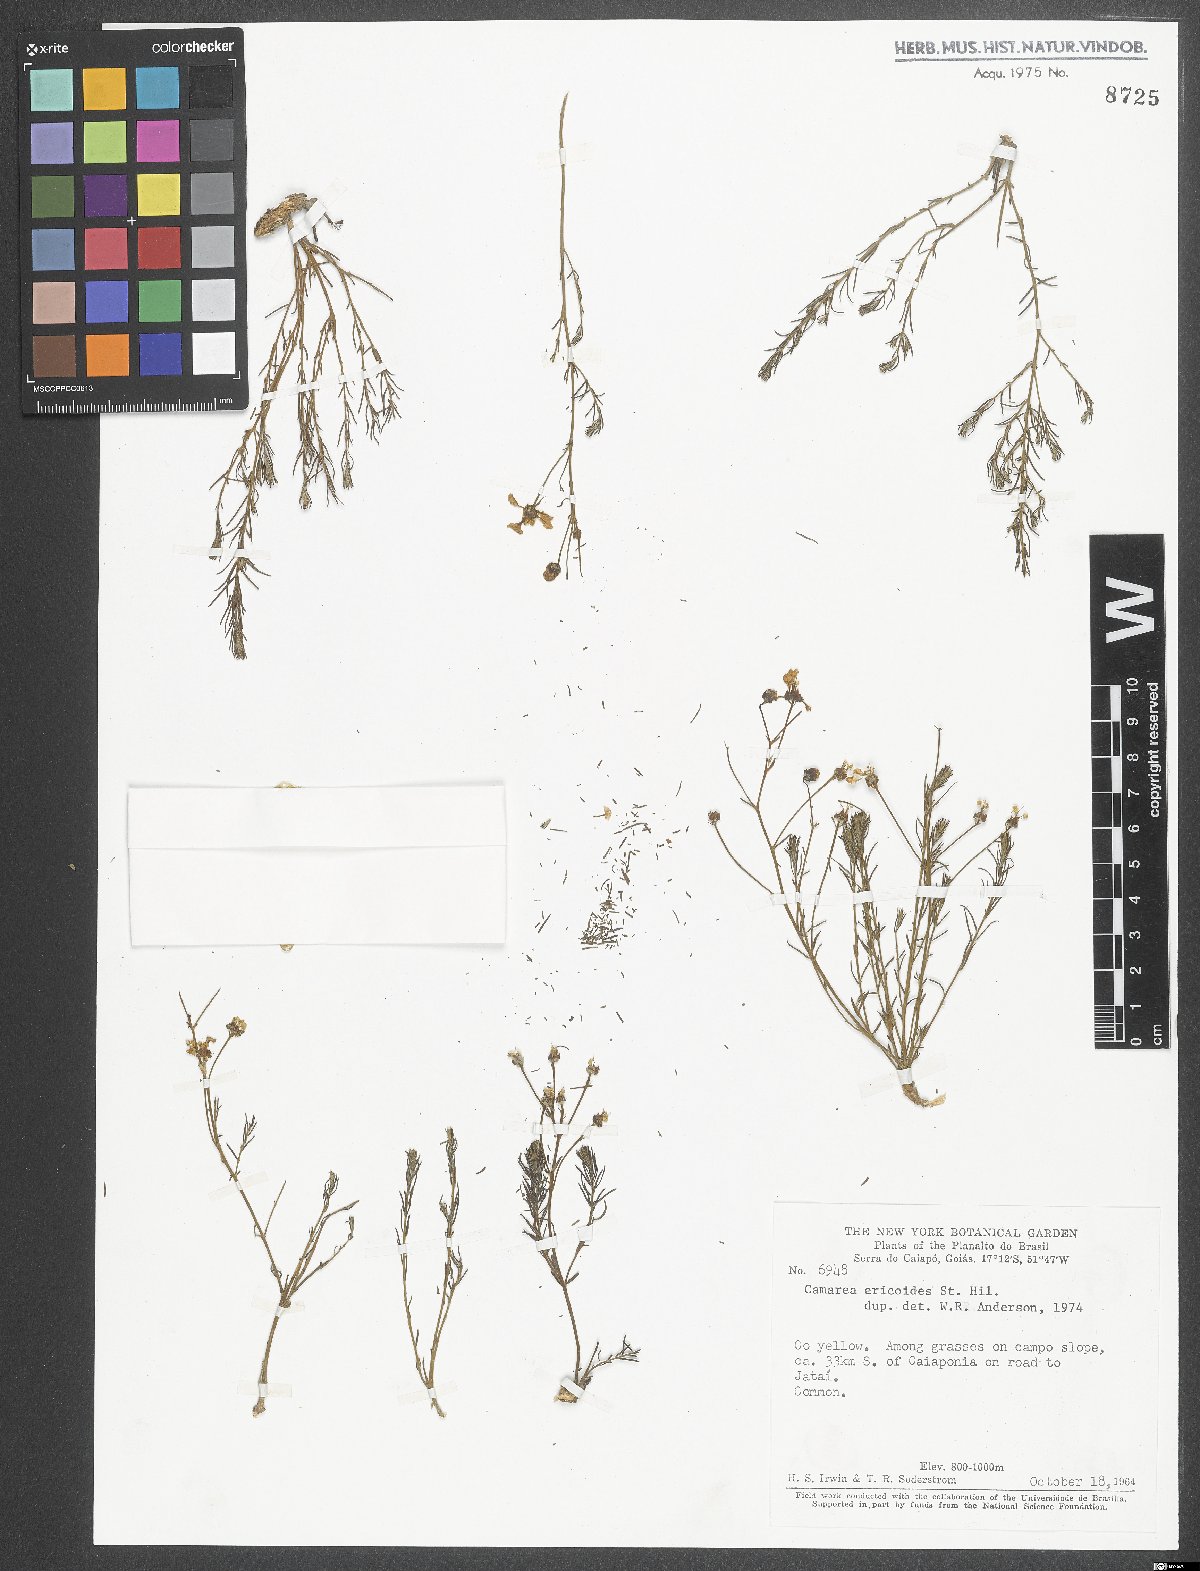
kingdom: Plantae
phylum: Tracheophyta
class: Magnoliopsida
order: Malpighiales
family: Malpighiaceae
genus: Camarea
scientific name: Camarea ericoides
